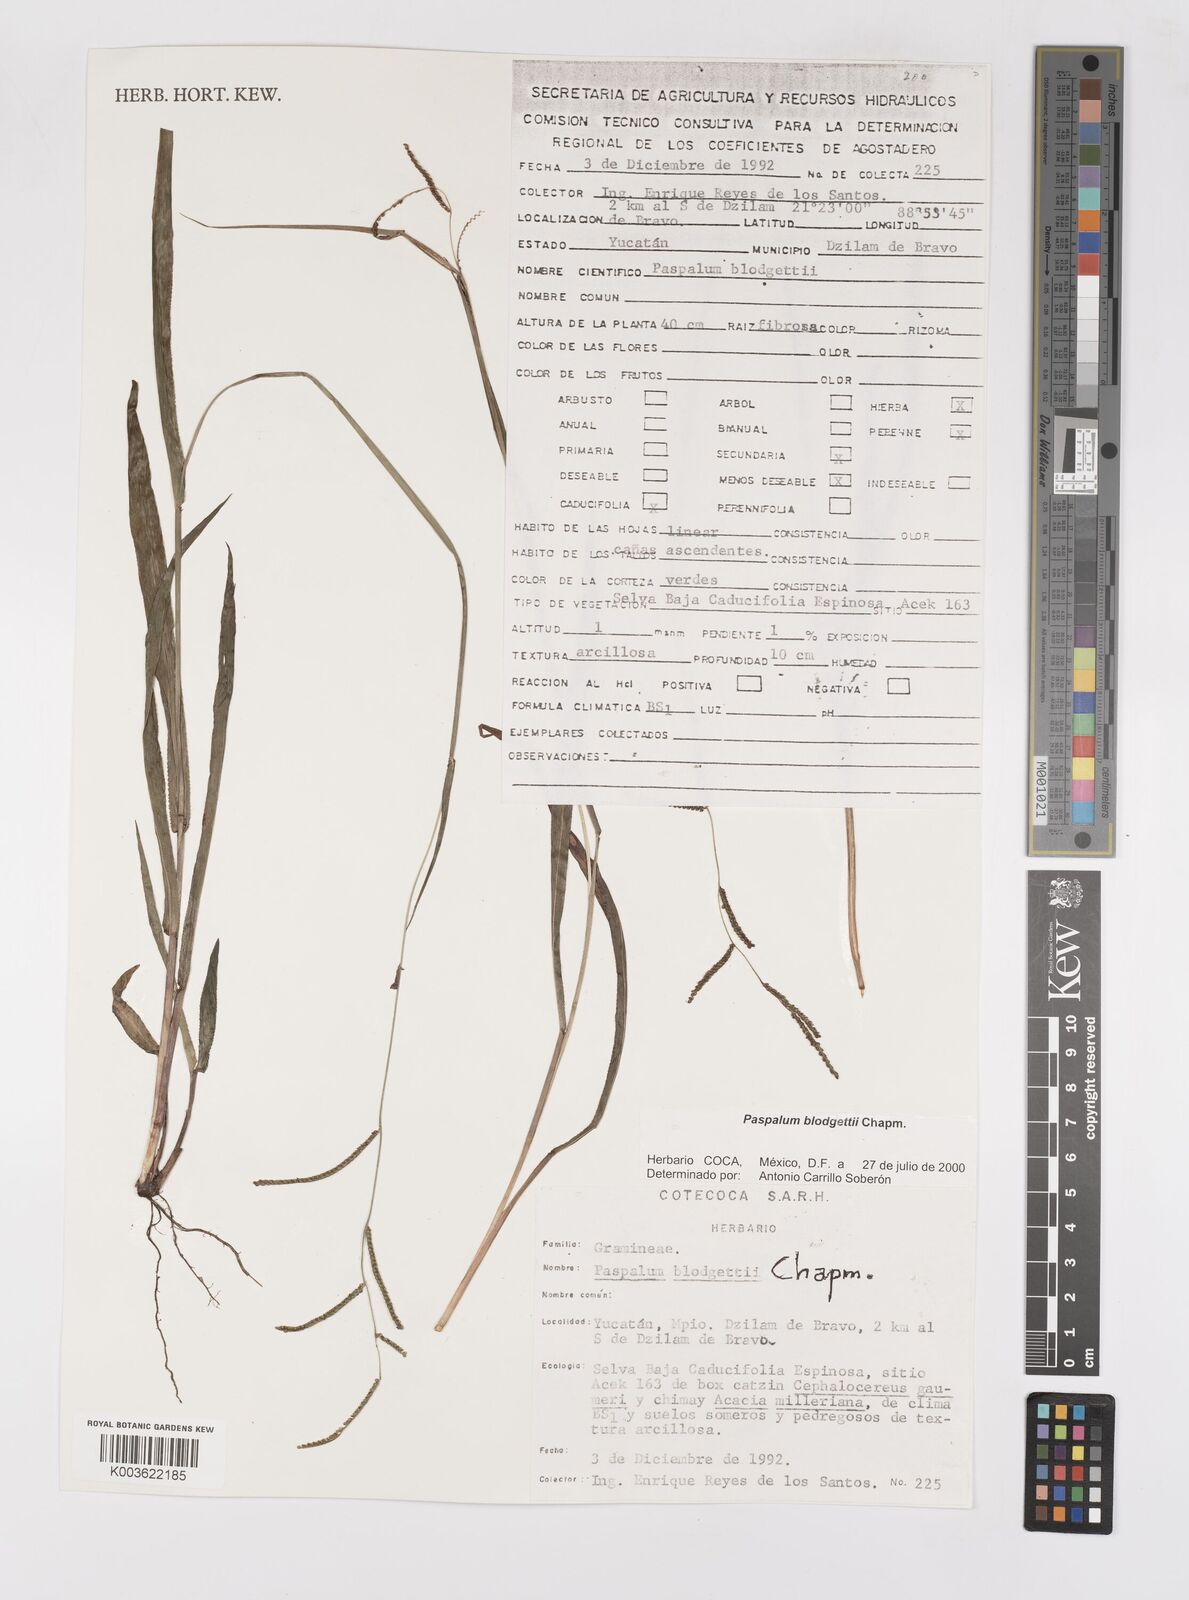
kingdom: Plantae
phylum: Tracheophyta
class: Liliopsida
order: Poales
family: Poaceae
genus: Paspalum
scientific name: Paspalum blodgettii
